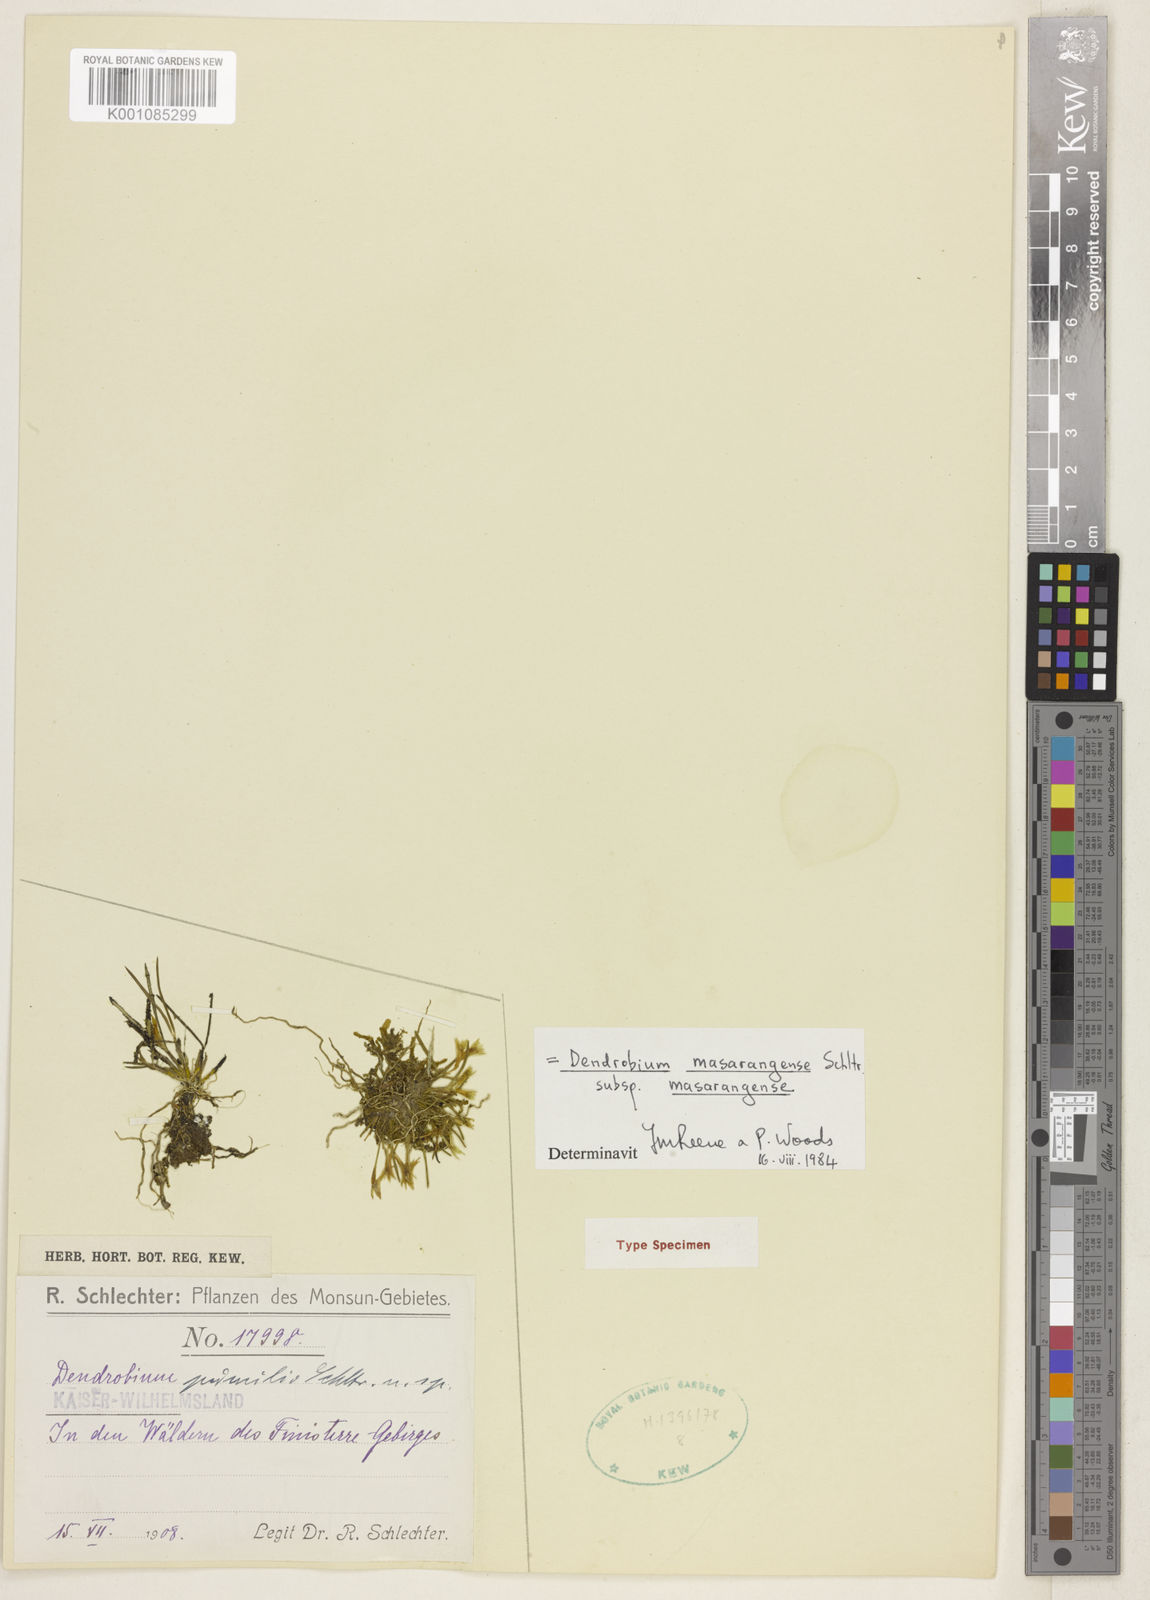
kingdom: Plantae
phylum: Tracheophyta
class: Liliopsida
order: Asparagales
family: Orchidaceae
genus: Dendrobium
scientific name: Dendrobium masarangense
